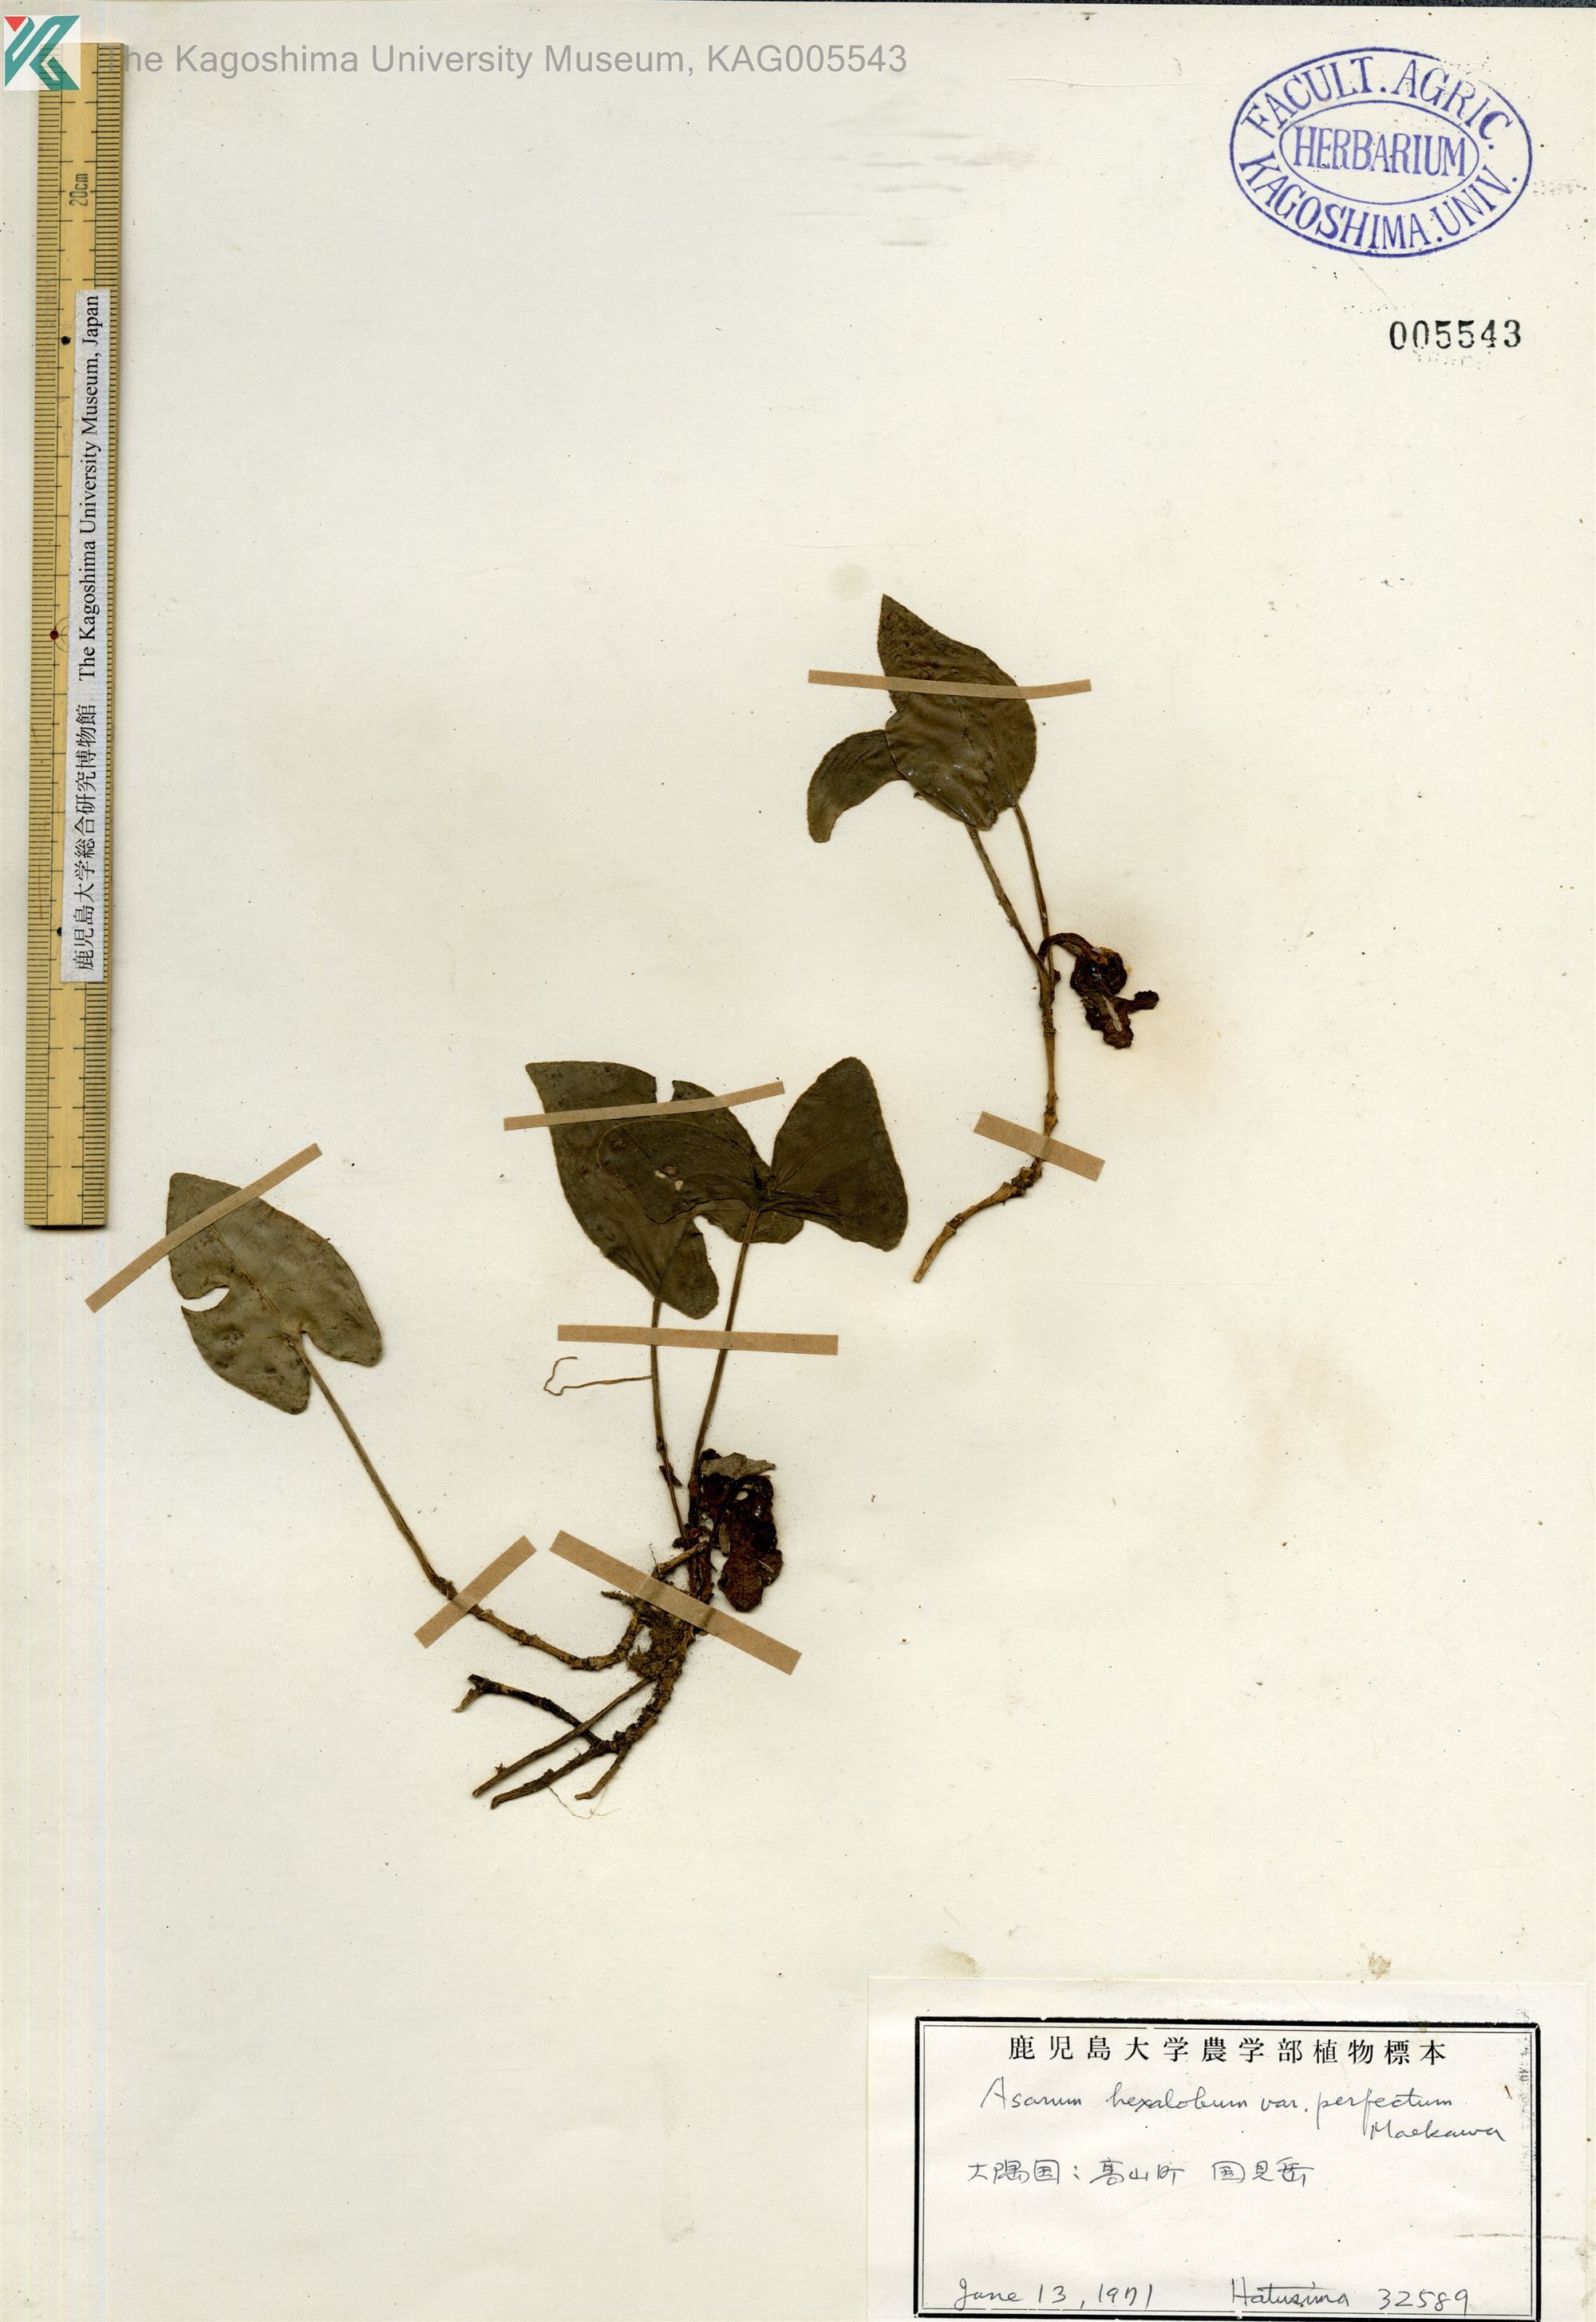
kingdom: Plantae
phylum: Tracheophyta
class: Magnoliopsida
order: Piperales
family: Aristolochiaceae
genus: Asarum
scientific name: Asarum hexalobum
